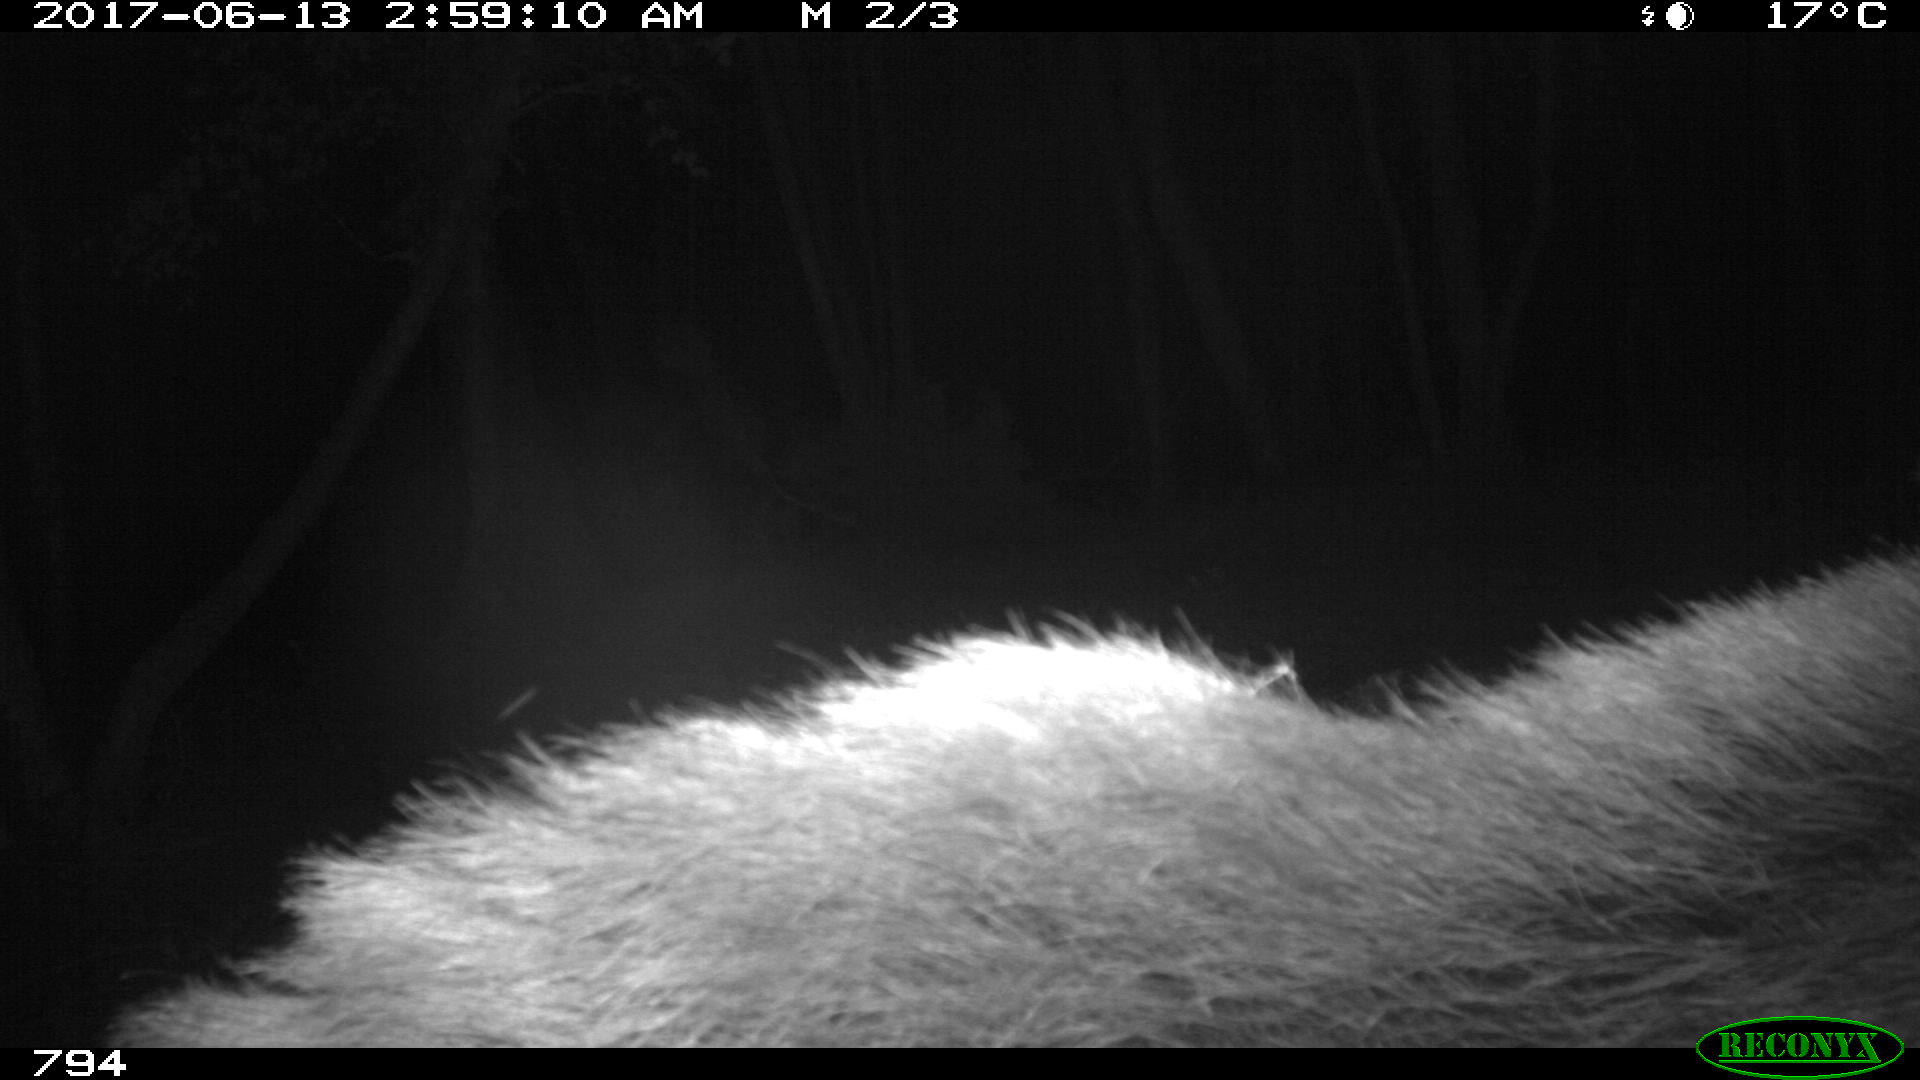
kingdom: Animalia
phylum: Chordata
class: Mammalia
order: Artiodactyla
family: Suidae
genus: Sus
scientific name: Sus scrofa
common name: Wild boar
